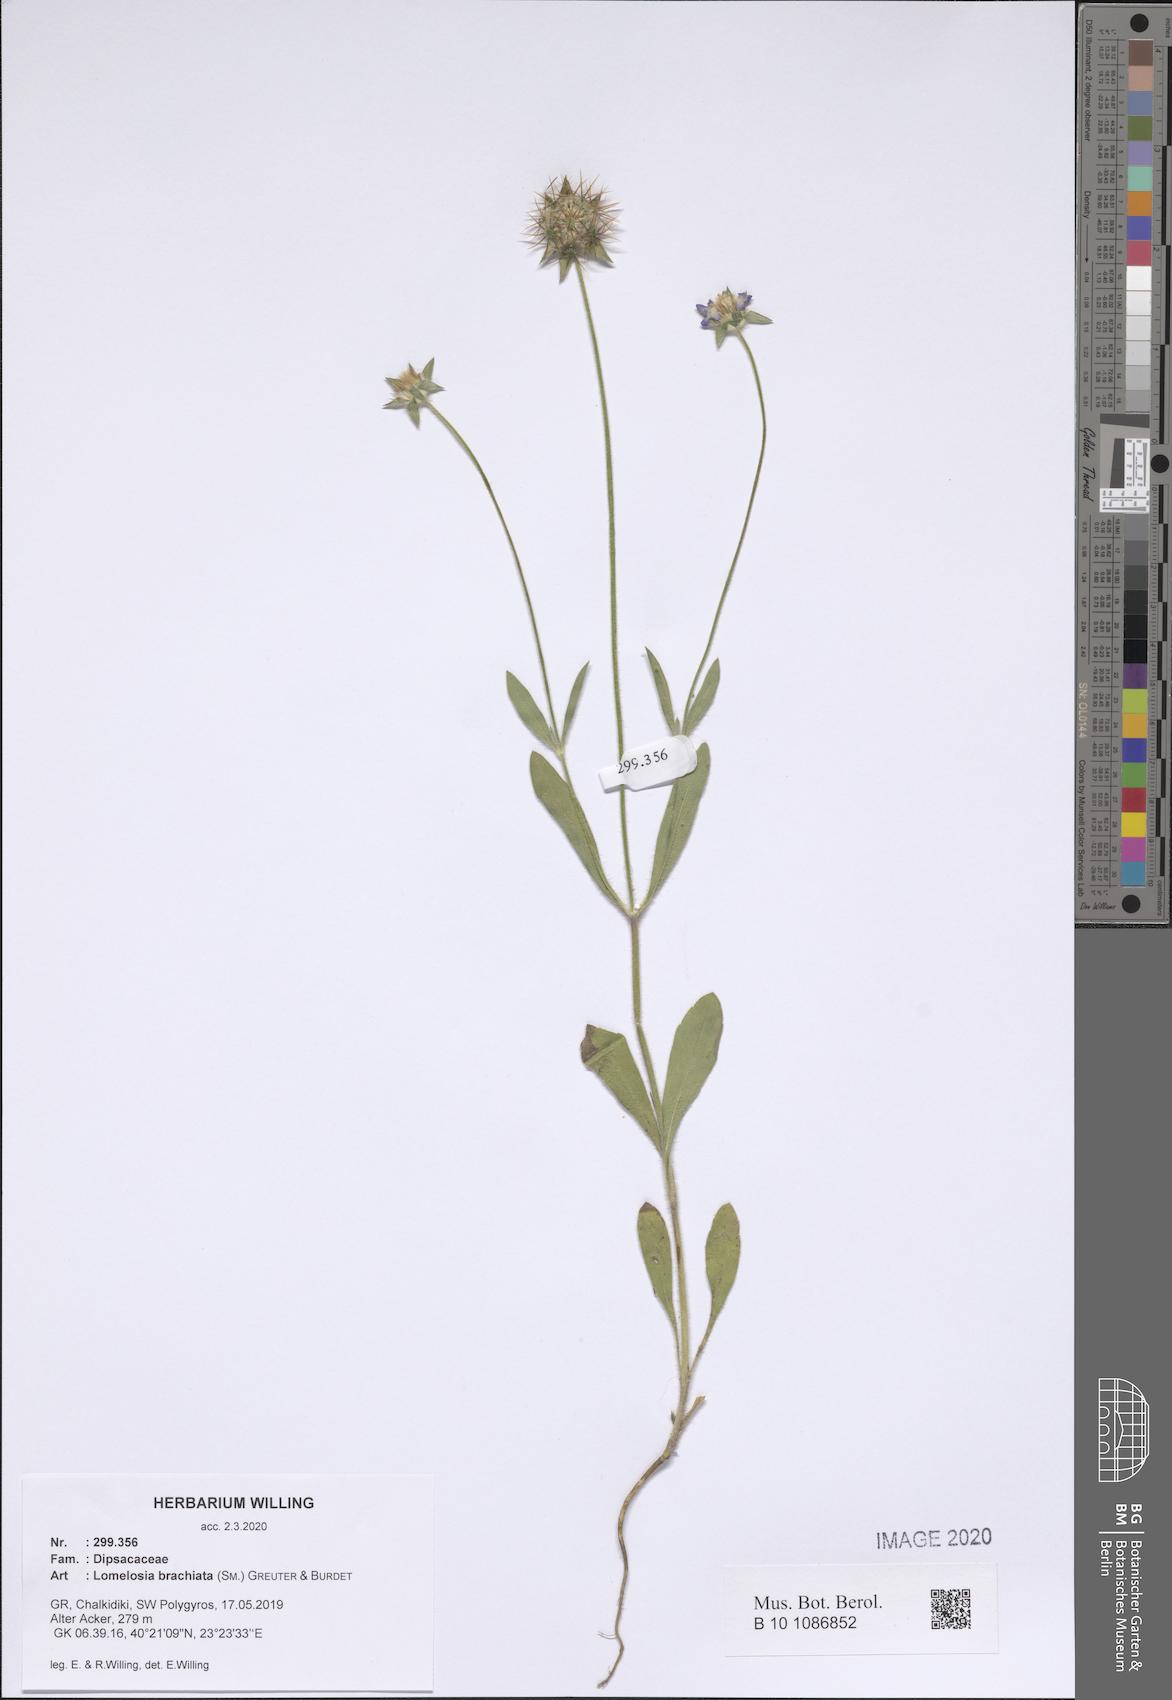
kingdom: Plantae
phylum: Tracheophyta
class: Magnoliopsida
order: Dipsacales
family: Caprifoliaceae
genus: Lomelosia
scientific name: Lomelosia brachiata
